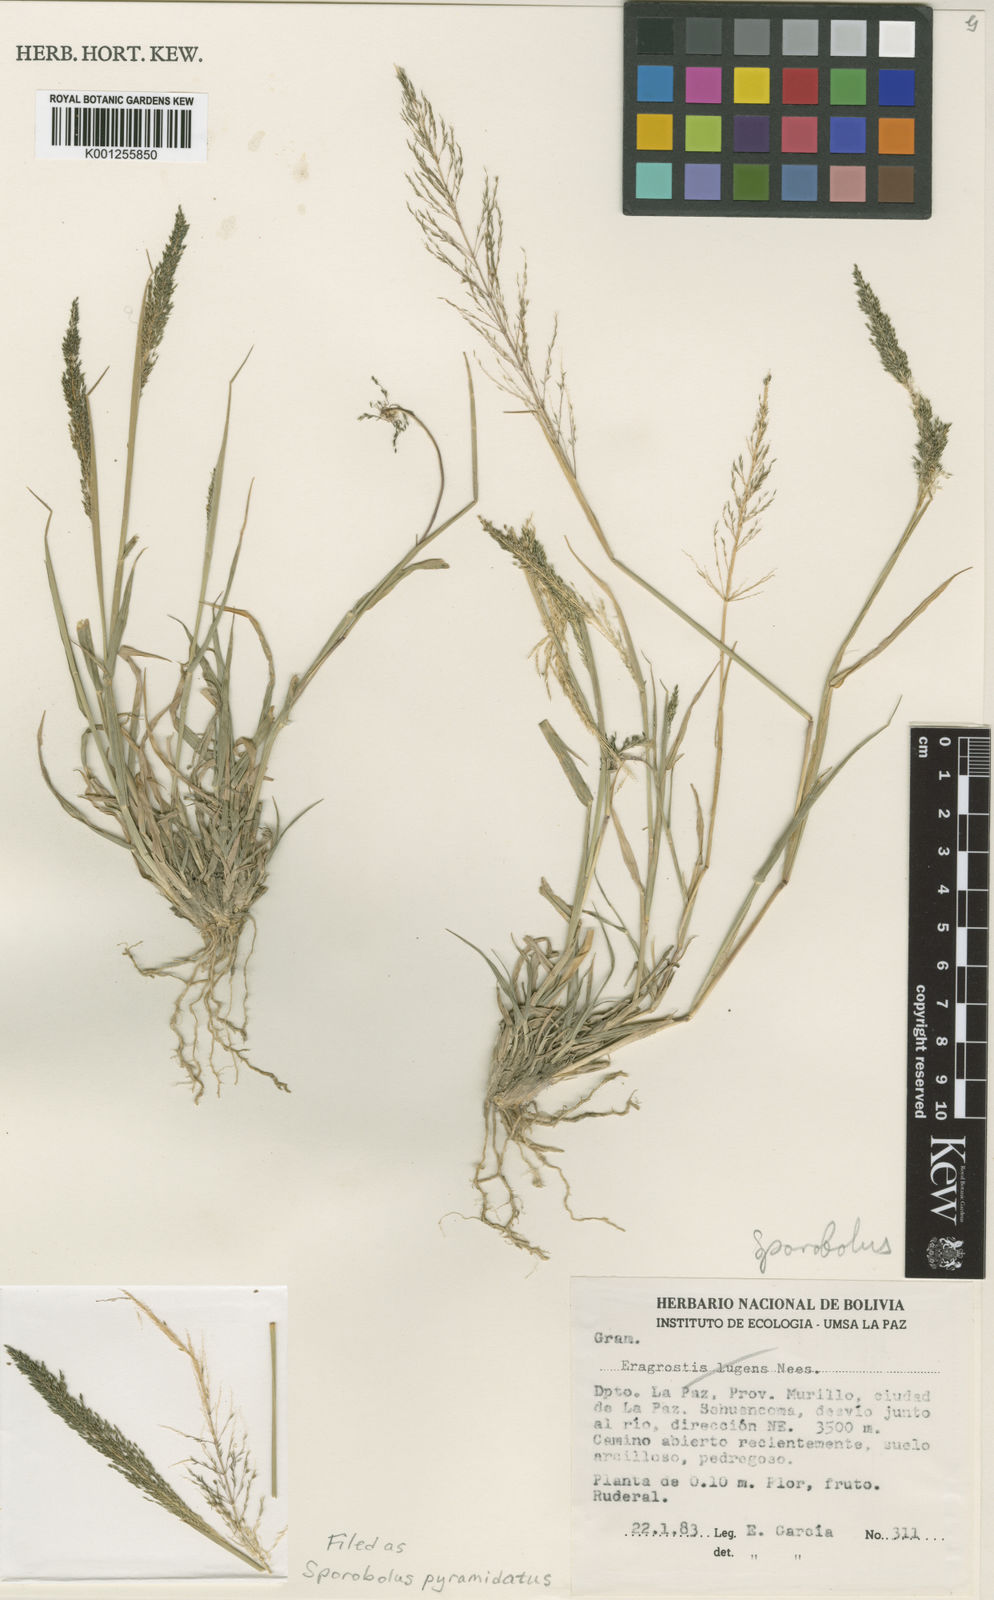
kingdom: Plantae
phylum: Tracheophyta
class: Liliopsida
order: Poales
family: Poaceae
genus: Sporobolus
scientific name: Sporobolus pyramidatus
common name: Whorled dropseed
